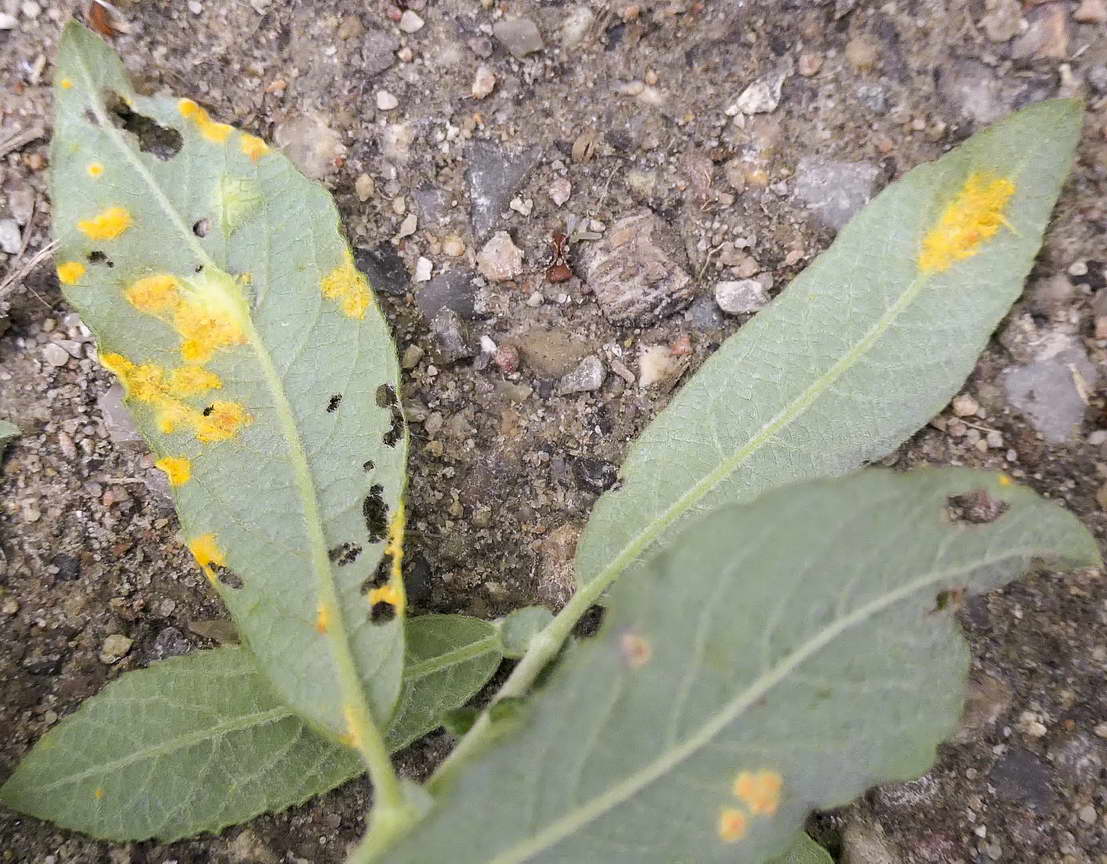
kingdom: Fungi
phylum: Basidiomycota
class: Pucciniomycetes
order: Pucciniales
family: Melampsoraceae
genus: Melampsora
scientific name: Melampsora epitea
